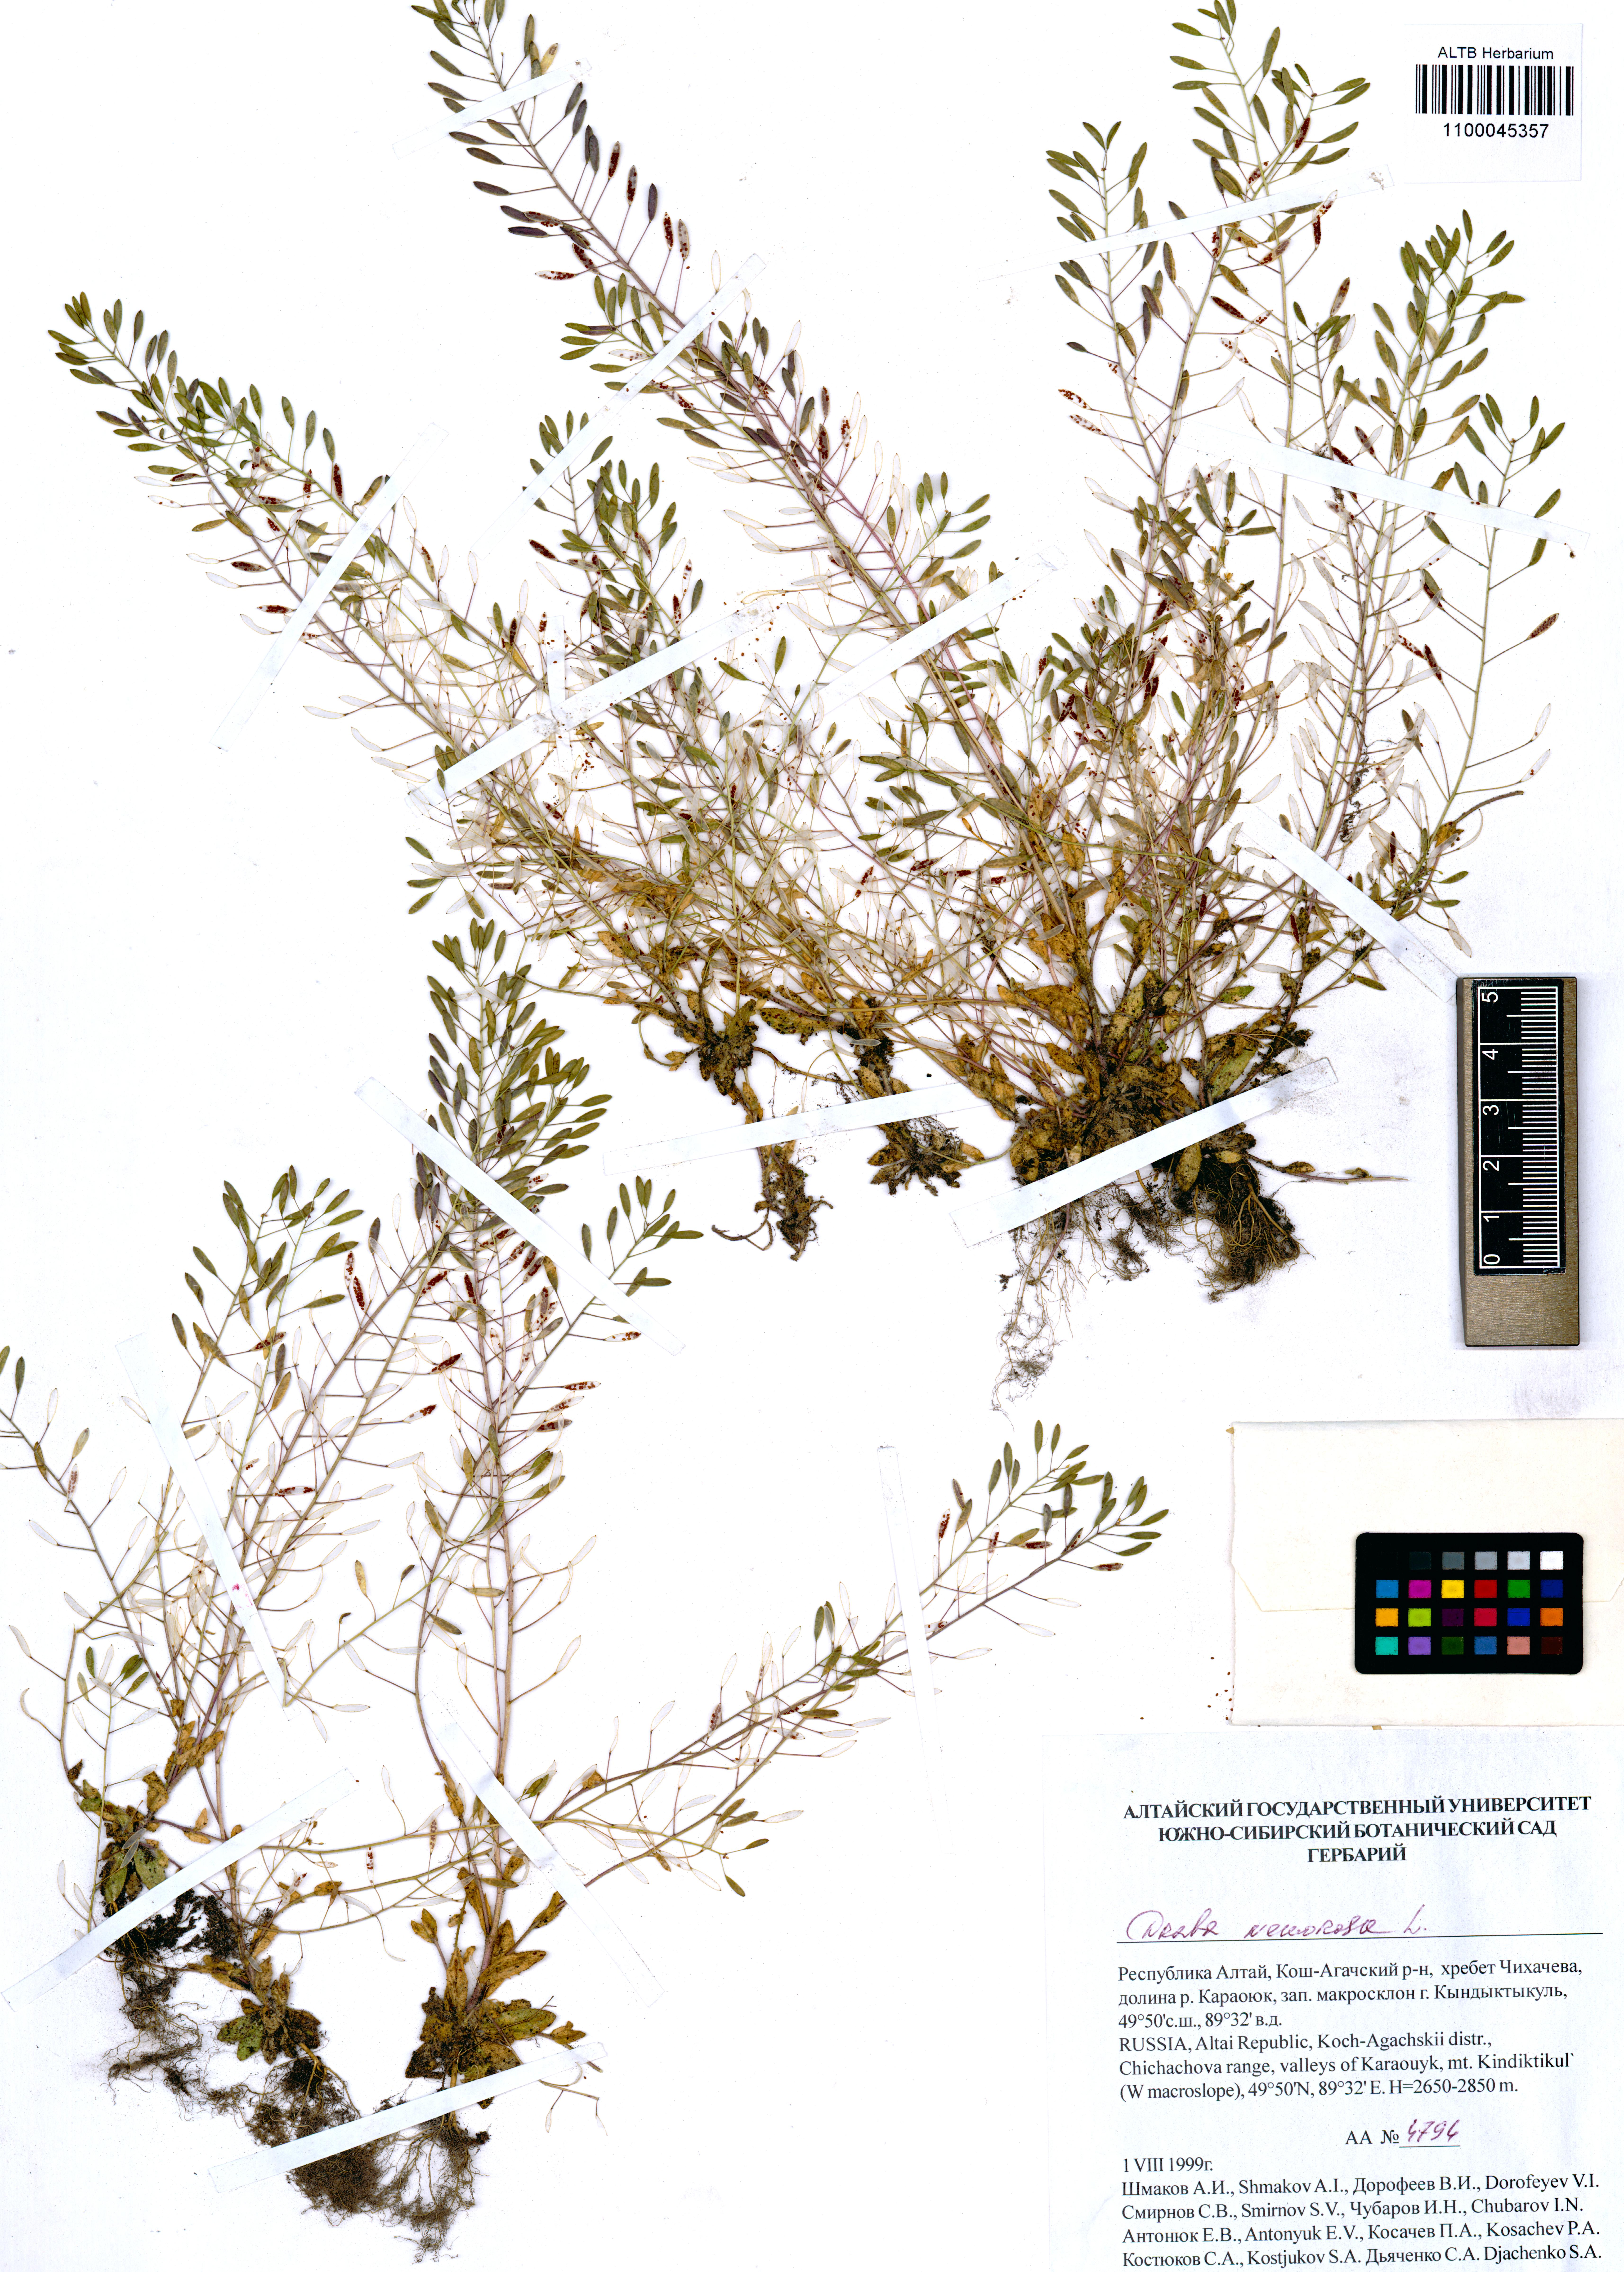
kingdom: Plantae
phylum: Tracheophyta
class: Magnoliopsida
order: Brassicales
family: Brassicaceae
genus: Draba
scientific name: Draba nemorosa
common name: Wood whitlow-grass
